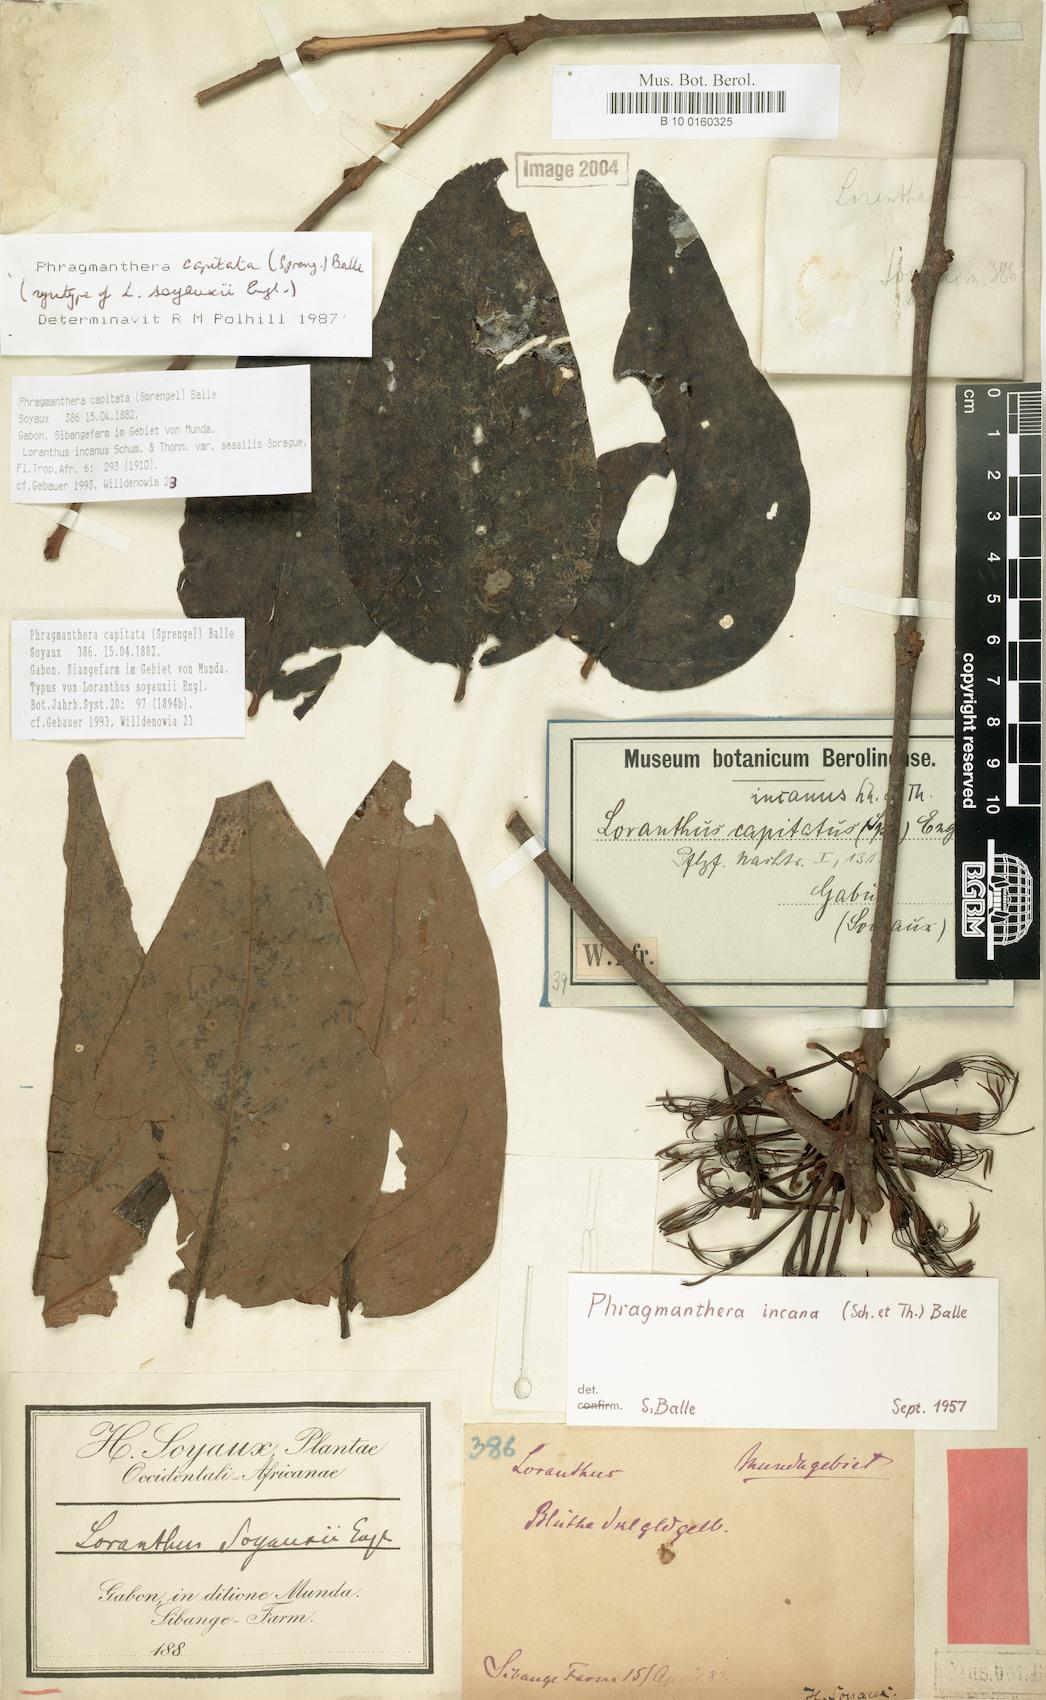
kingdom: Plantae
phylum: Tracheophyta
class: Magnoliopsida
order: Santalales
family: Loranthaceae
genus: Phragmanthera
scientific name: Phragmanthera capitata
